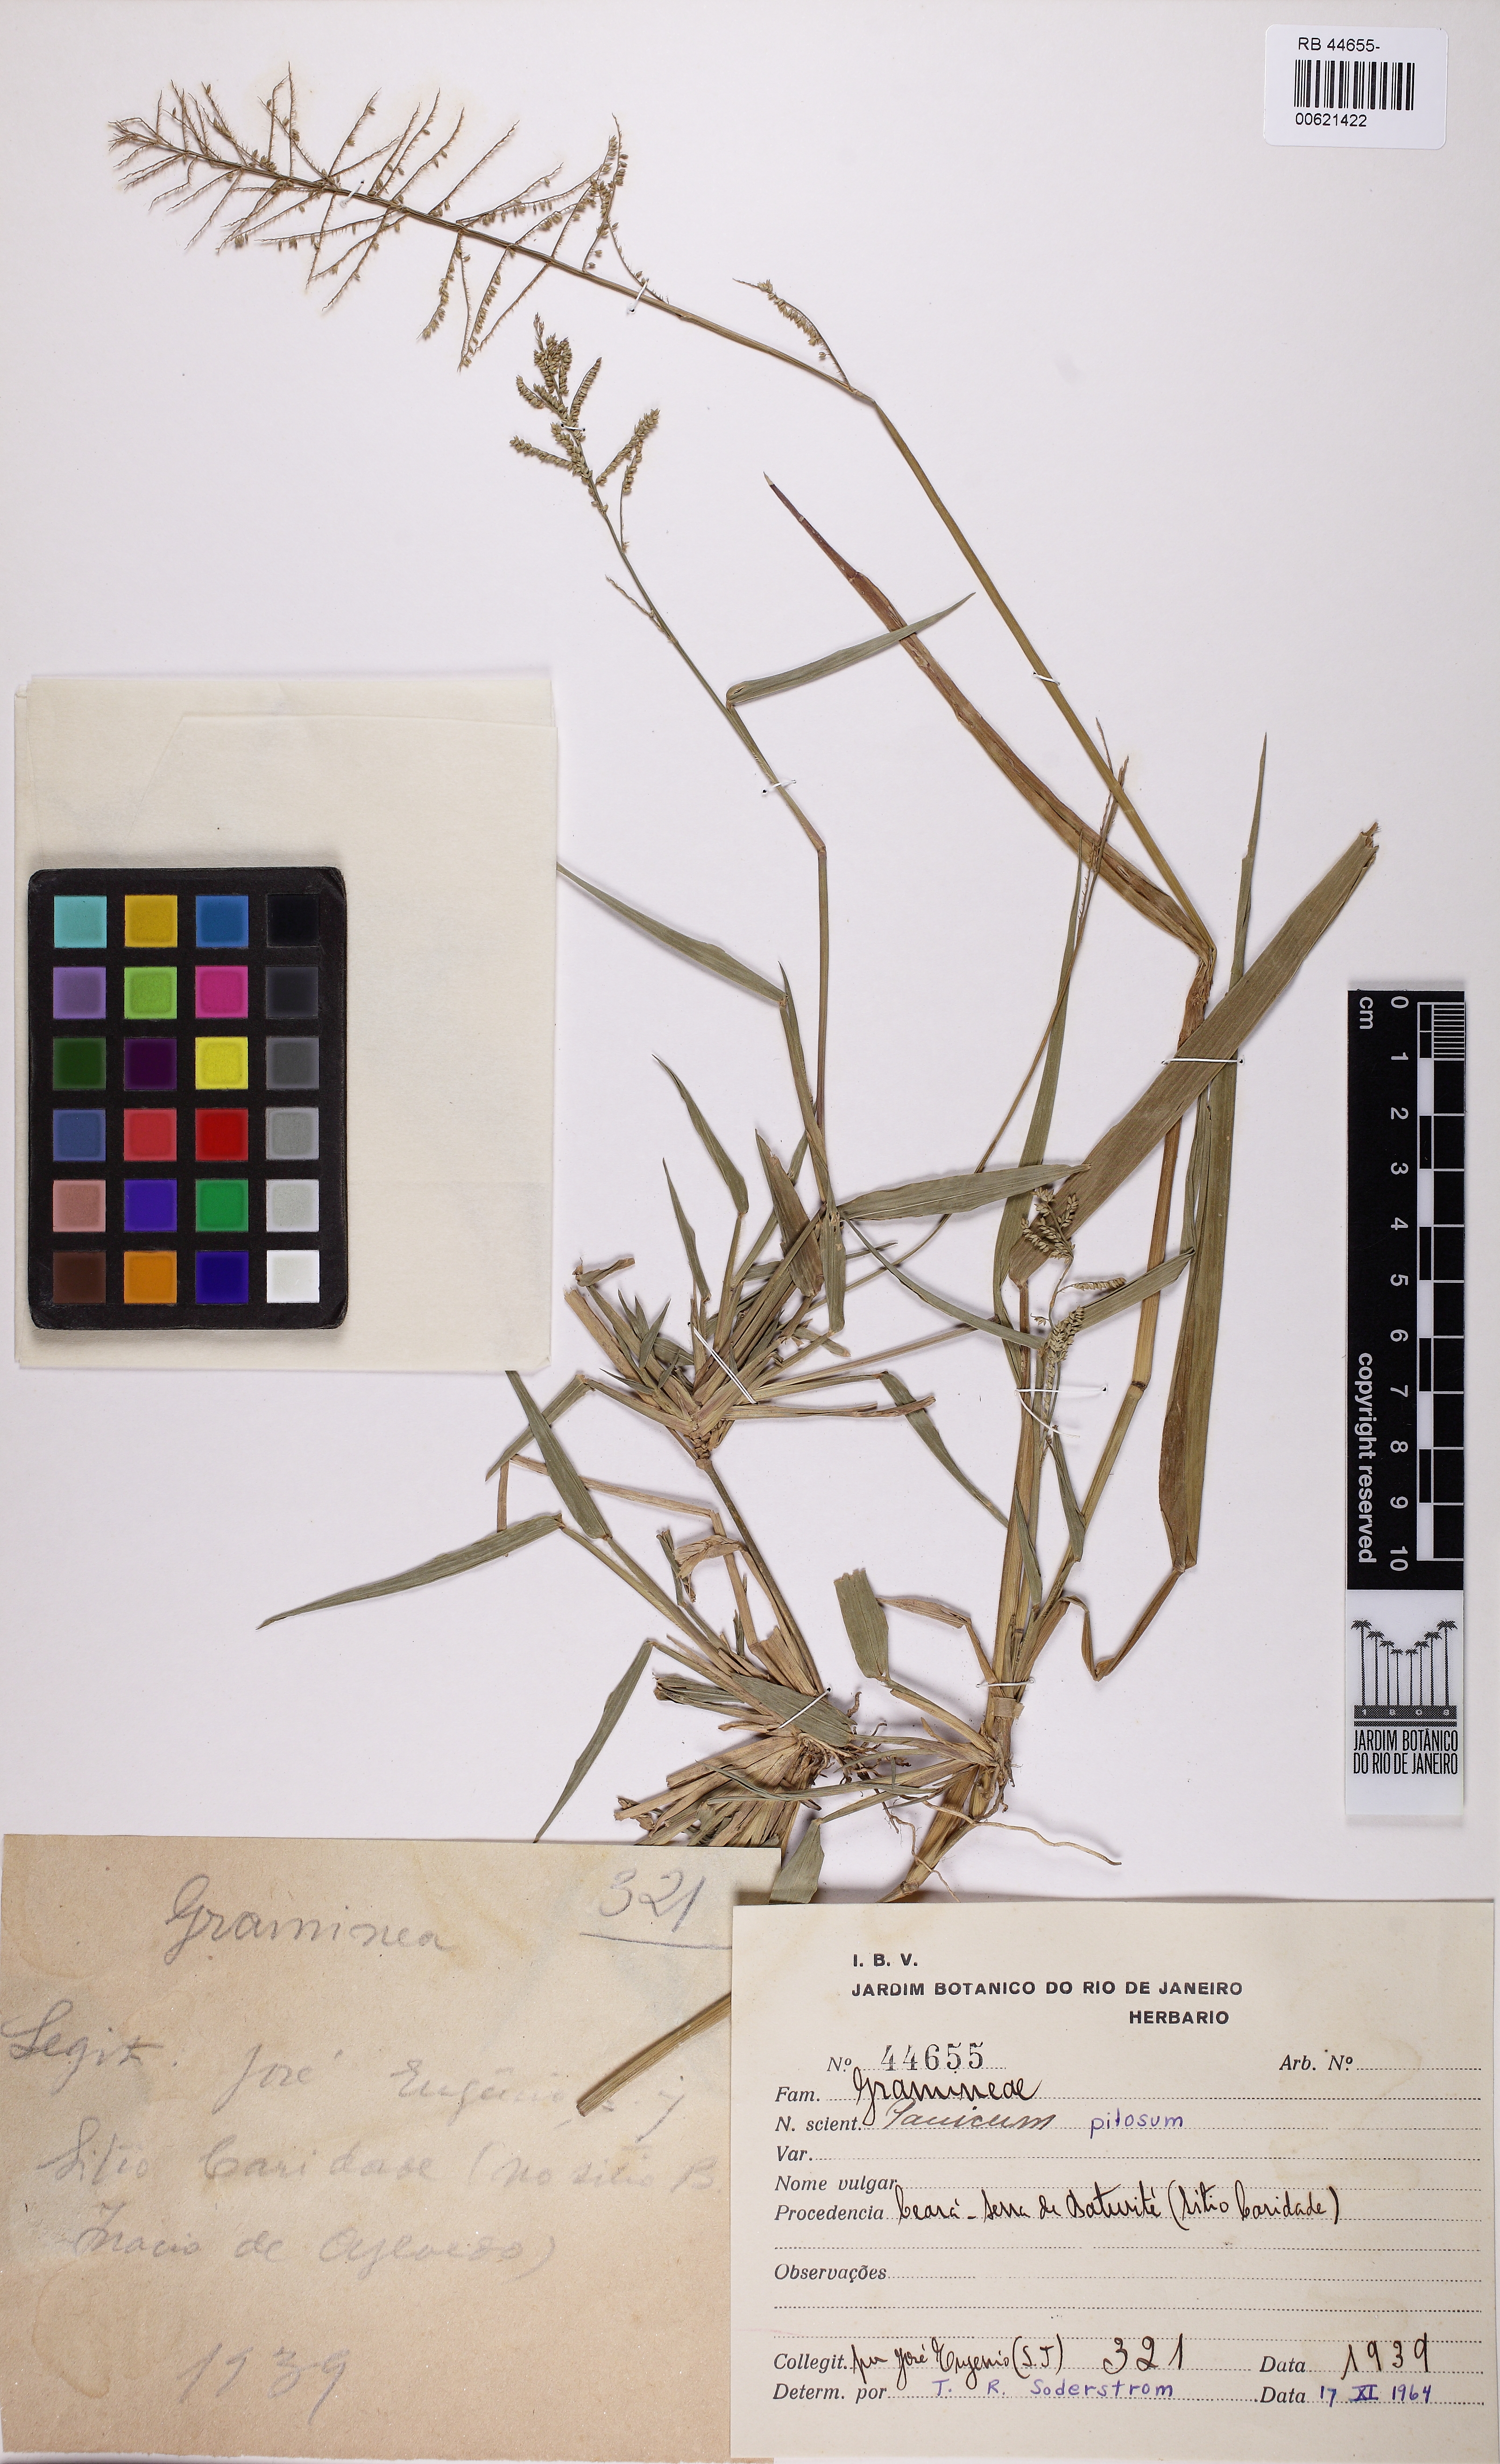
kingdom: Plantae
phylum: Tracheophyta
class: Liliopsida
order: Poales
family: Poaceae
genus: Rugoloa
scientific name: Rugoloa pilosa
